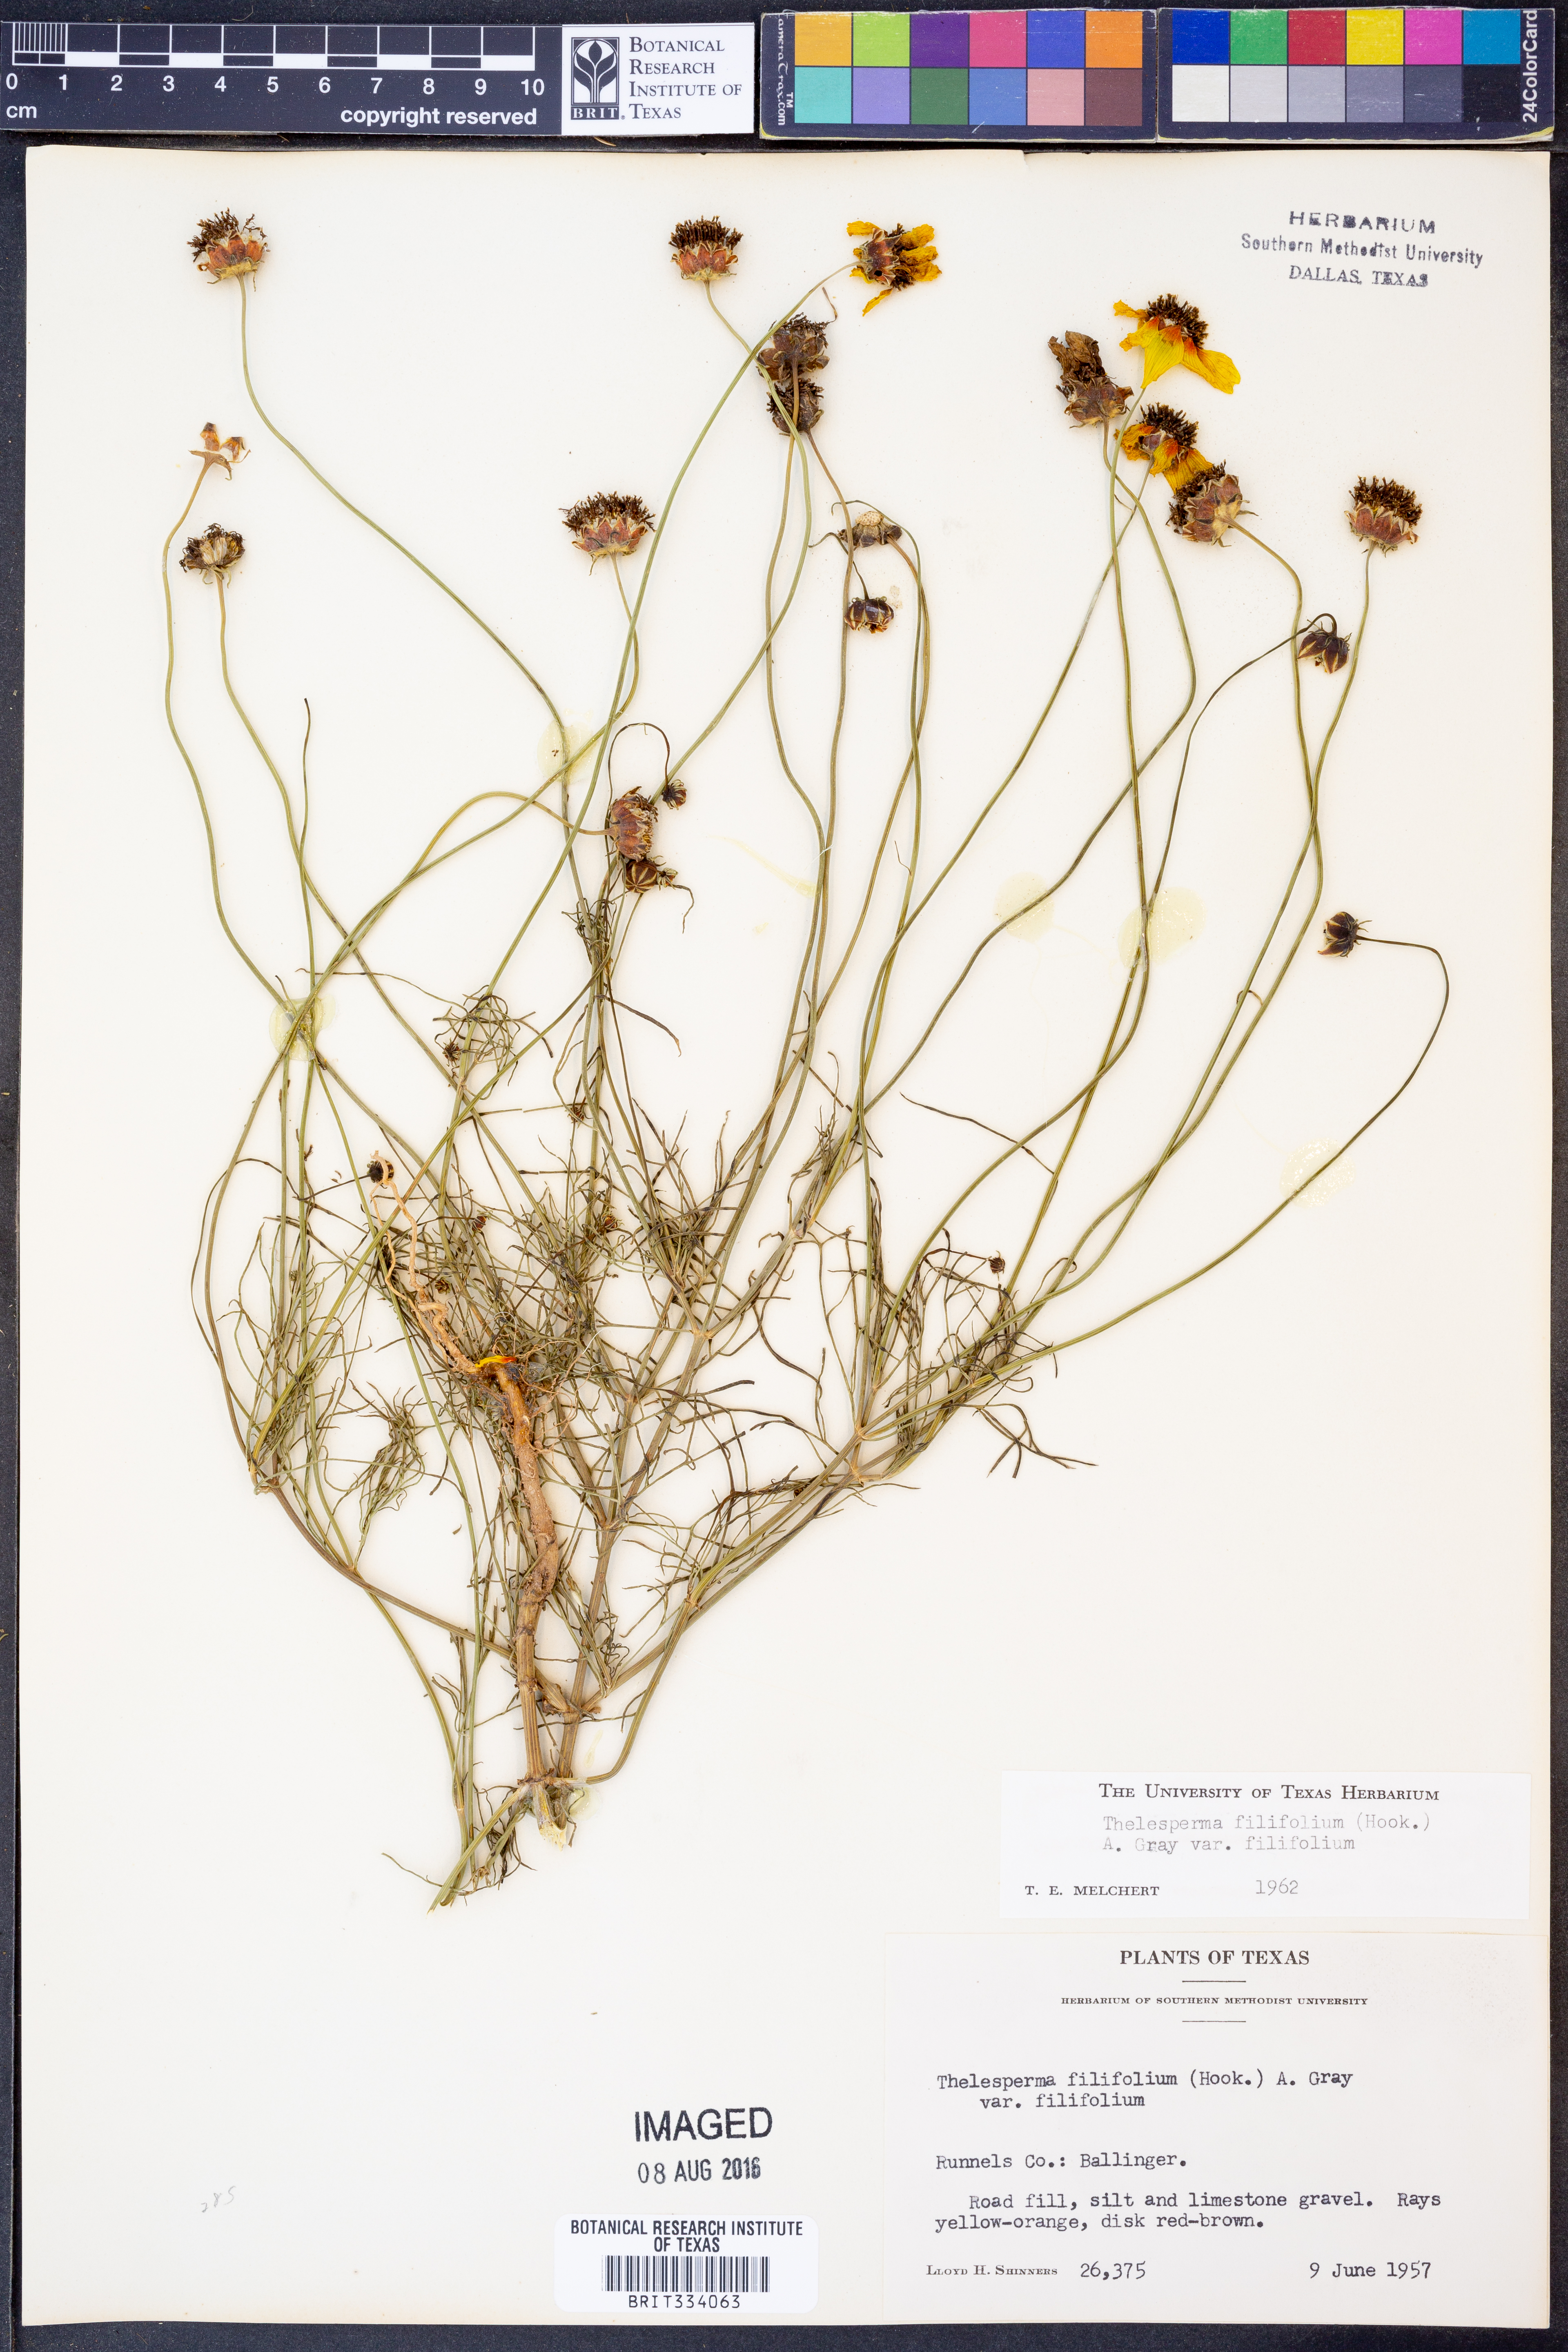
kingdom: Plantae
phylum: Tracheophyta
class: Magnoliopsida
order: Asterales
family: Asteraceae
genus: Thelesperma
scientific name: Thelesperma filifolium
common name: Stiff greenthread
